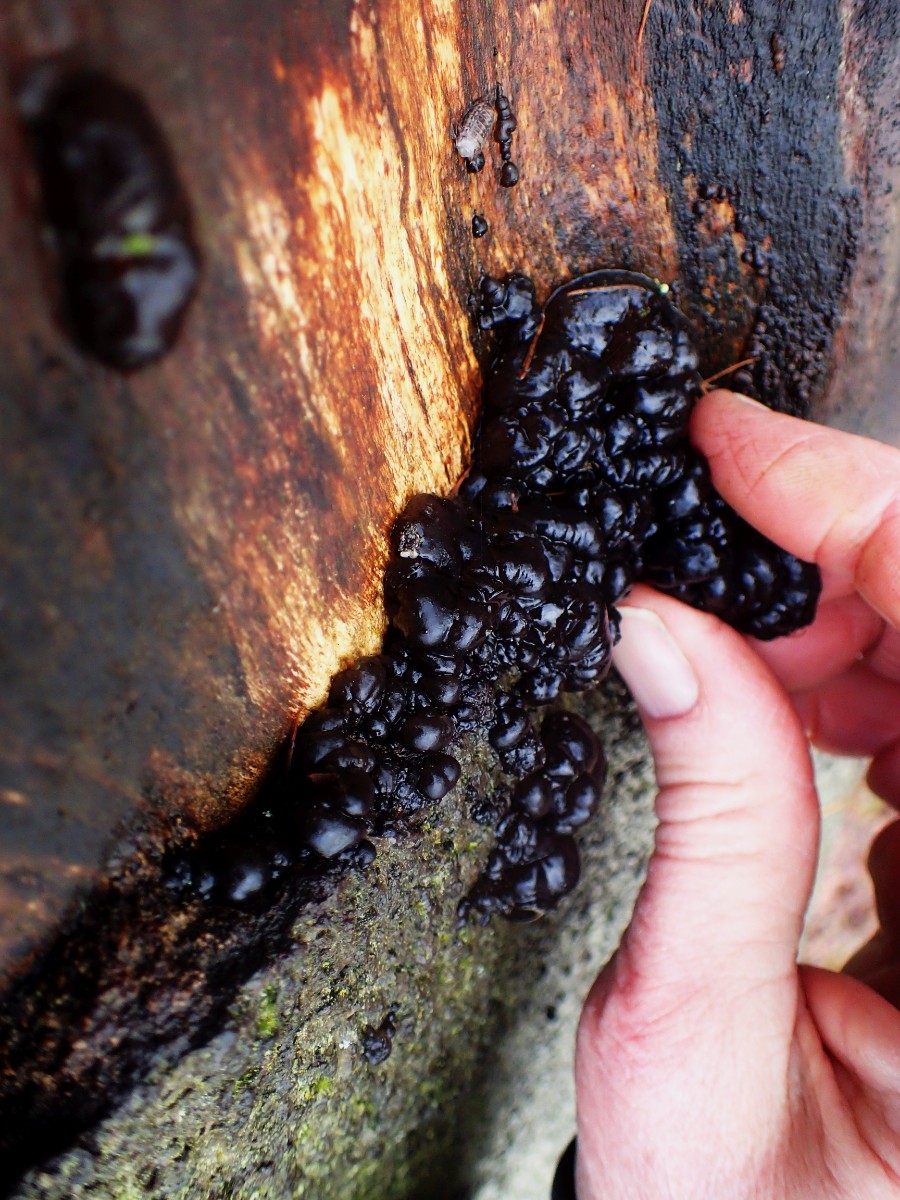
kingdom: Fungi
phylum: Basidiomycota
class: Agaricomycetes
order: Auriculariales
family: Auriculariaceae
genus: Exidia
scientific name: Exidia nigricans
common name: almindelig bævretop
